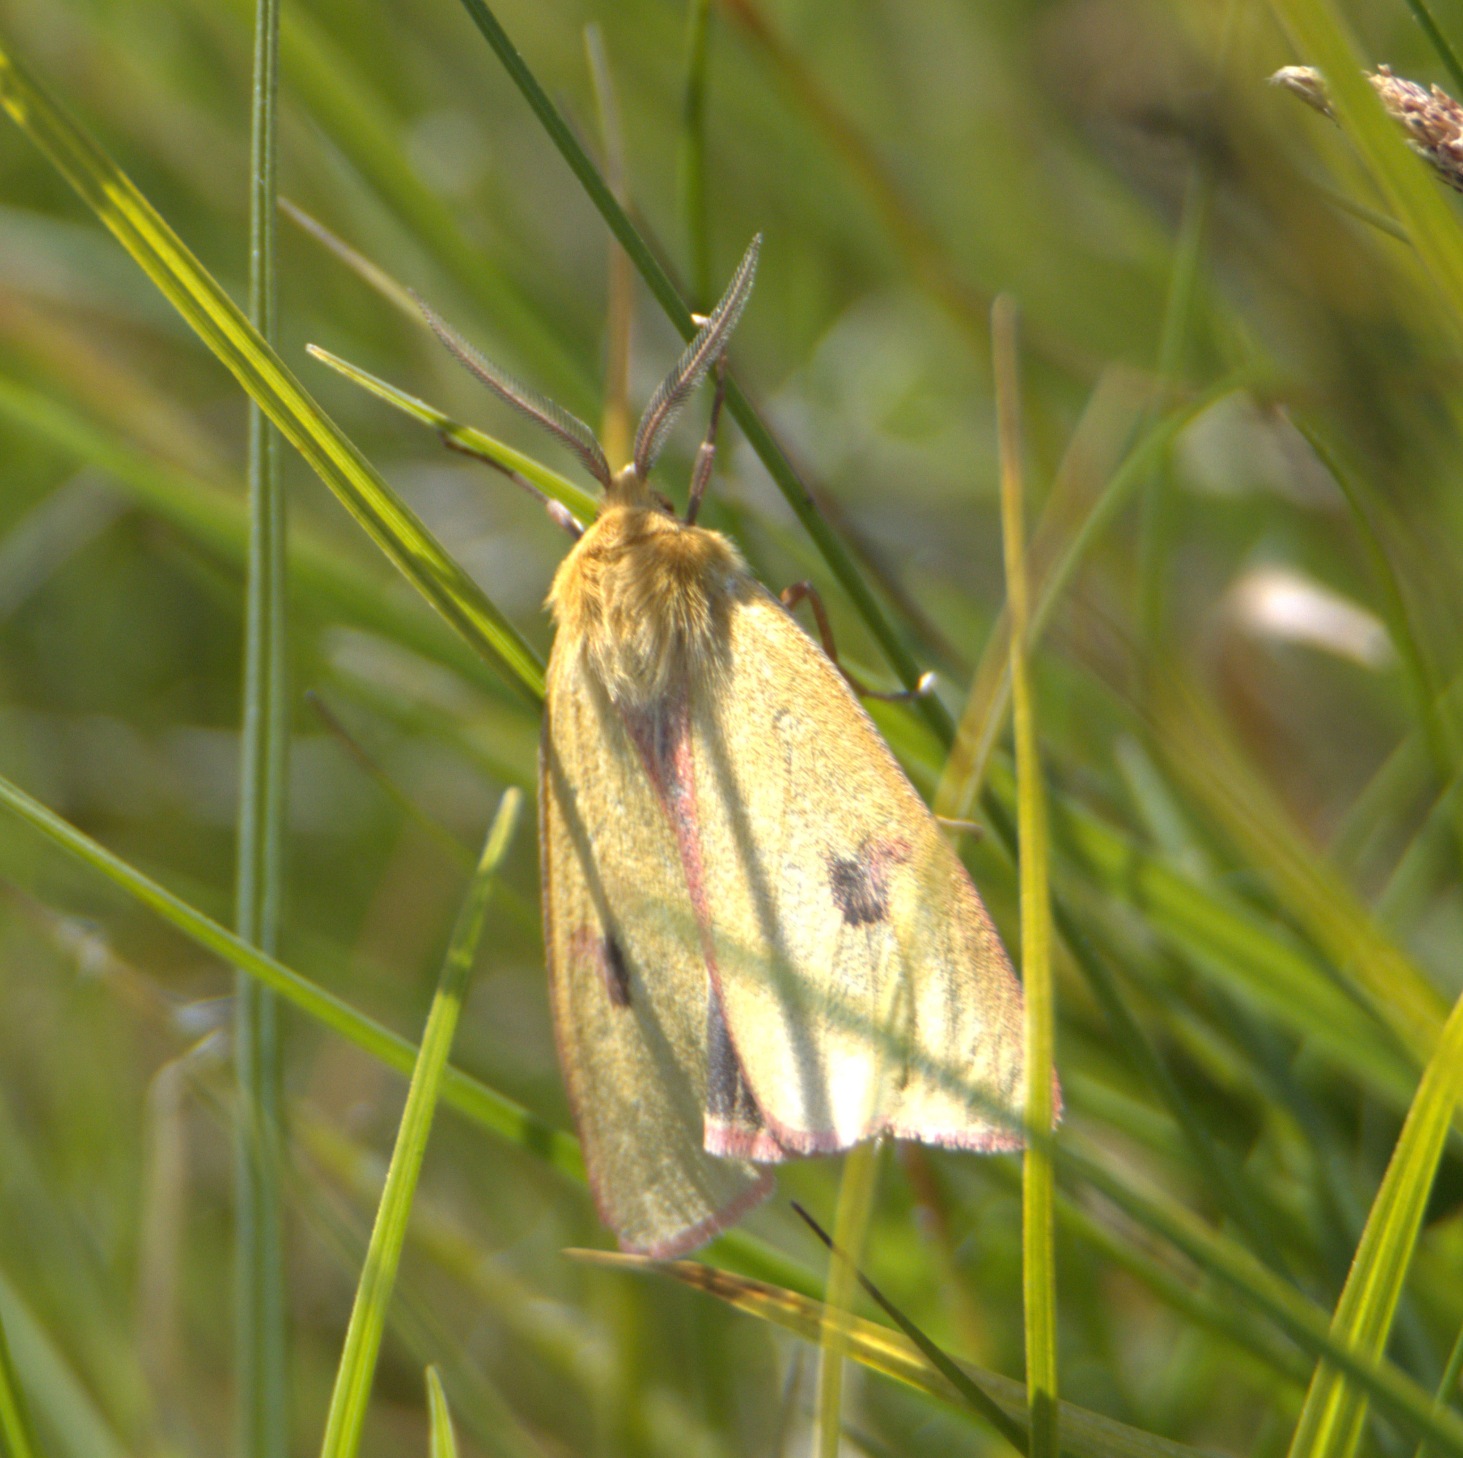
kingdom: Animalia
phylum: Arthropoda
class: Insecta
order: Lepidoptera
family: Erebidae
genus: Diacrisia
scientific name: Diacrisia sannio
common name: Rødfrynset bjørn
